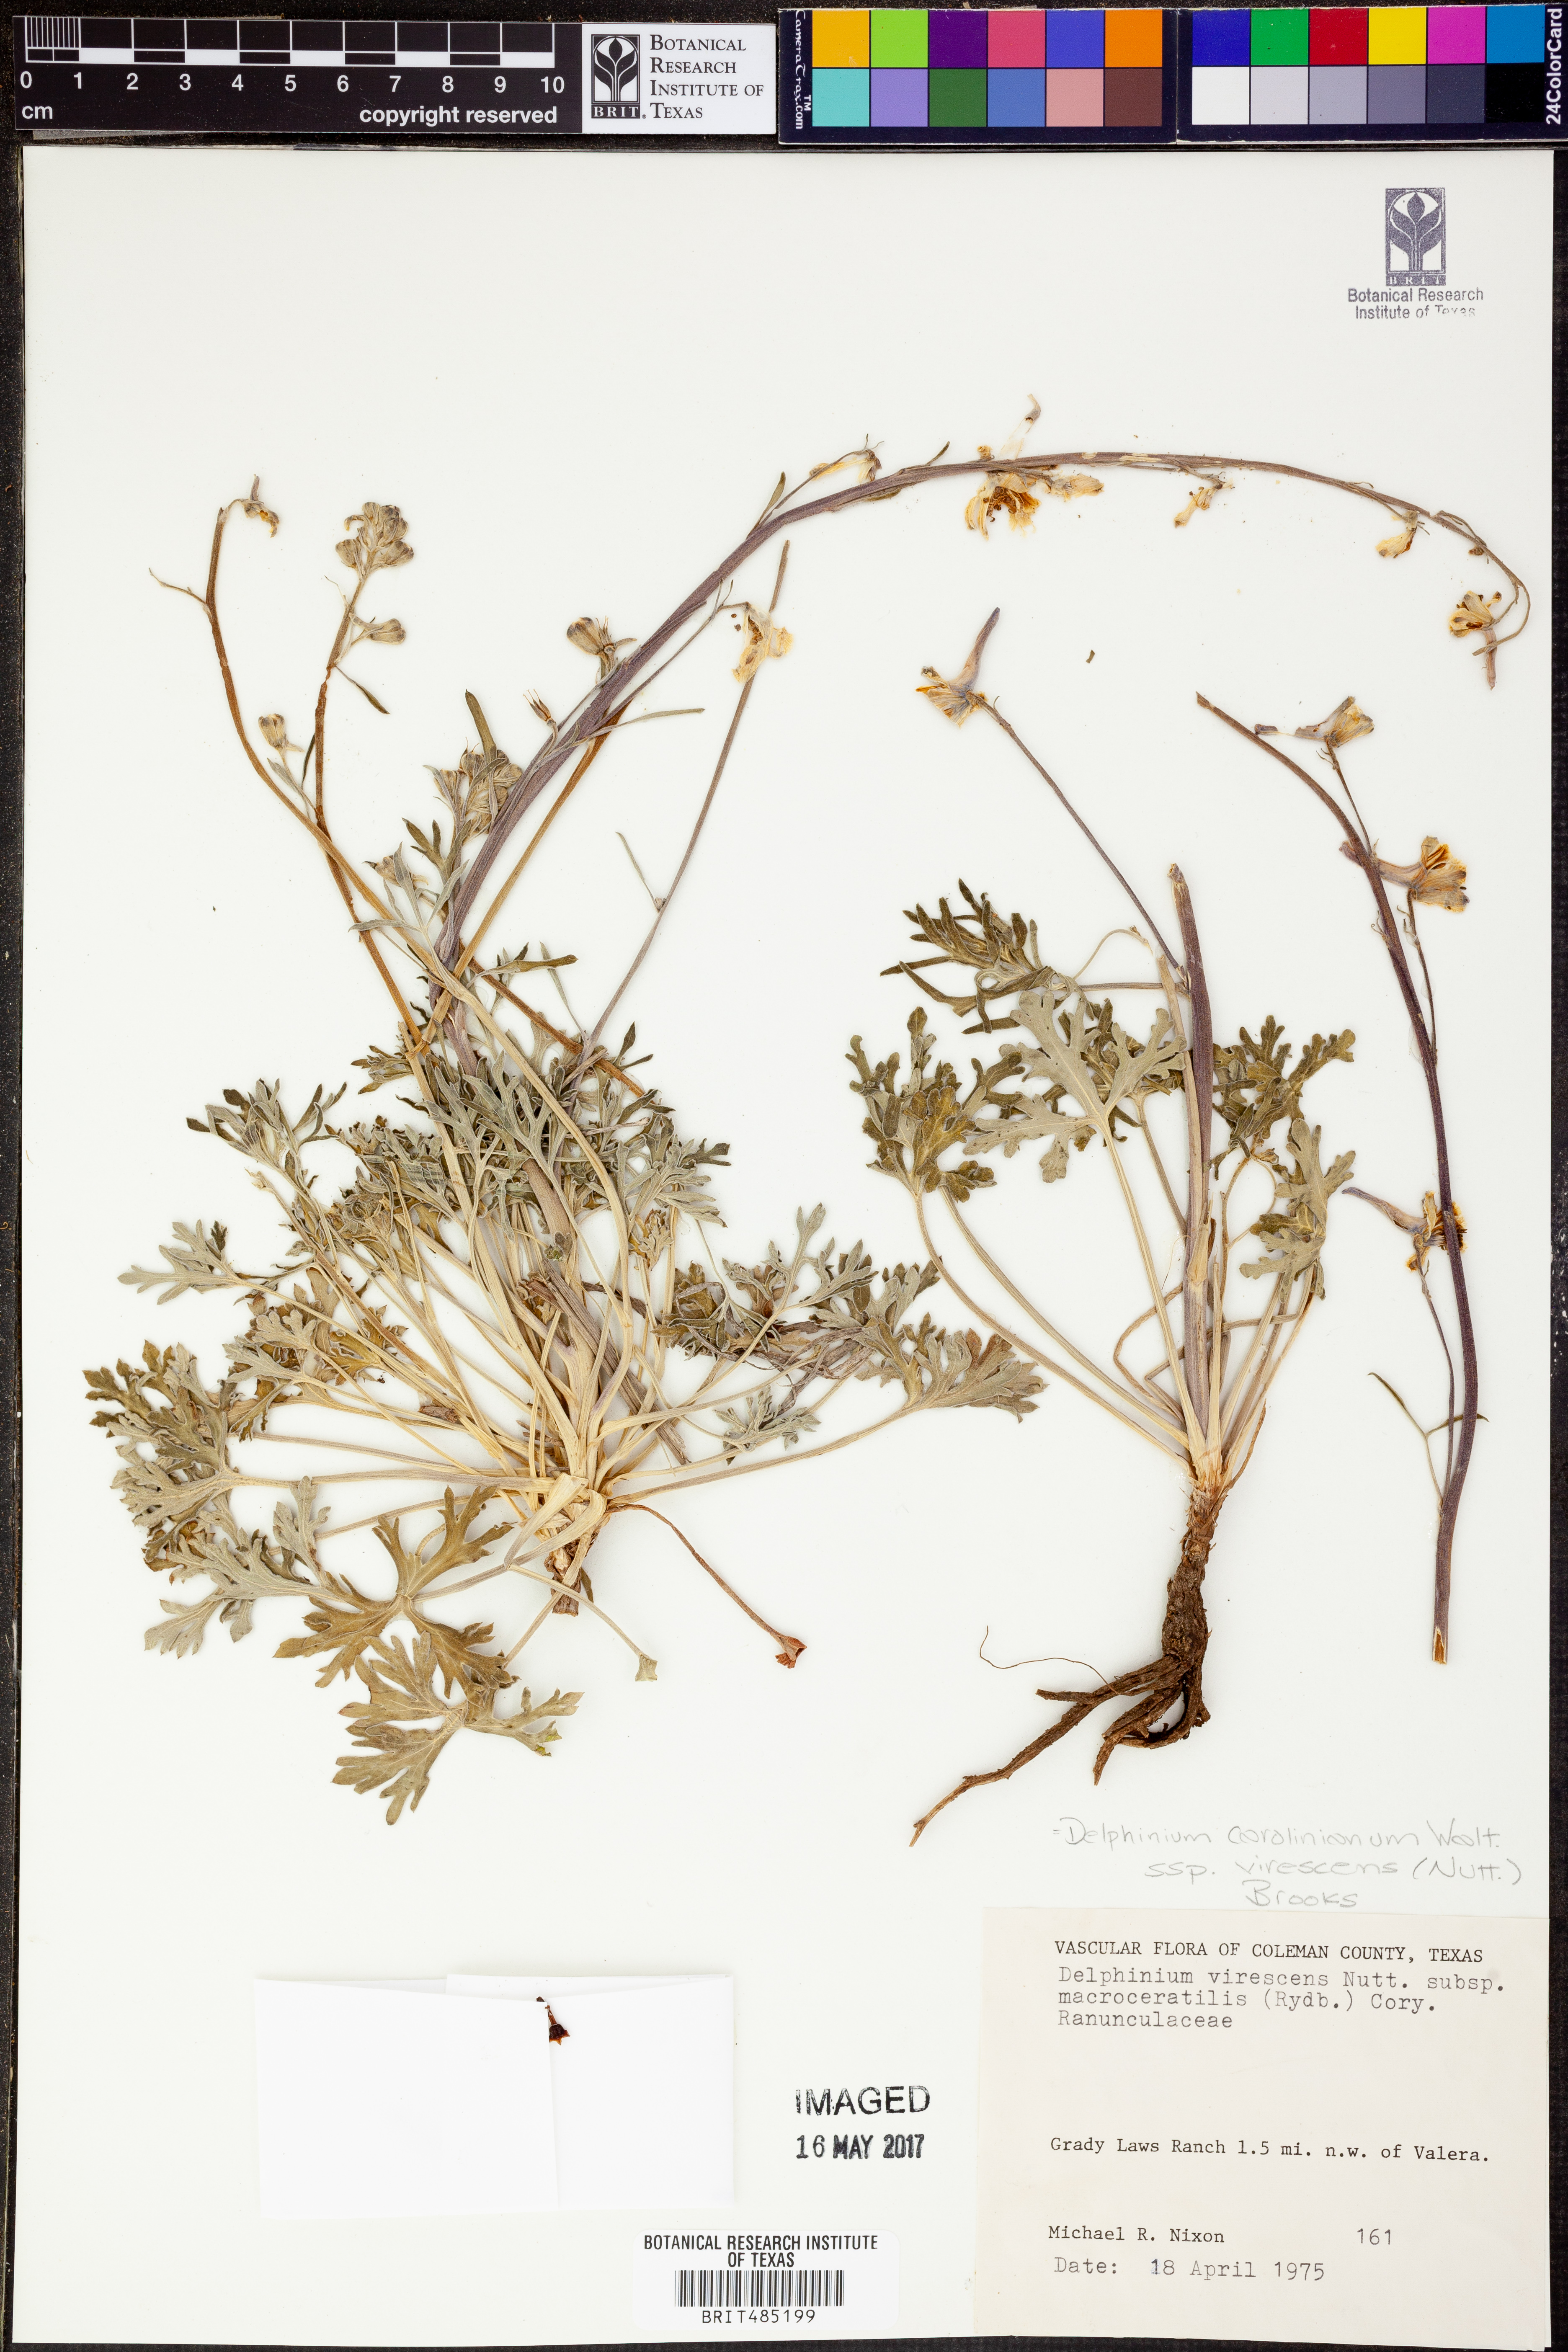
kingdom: Plantae
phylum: Tracheophyta
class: Magnoliopsida
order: Ranunculales
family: Ranunculaceae
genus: Delphinium
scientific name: Delphinium carolinianum
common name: Carolina larkspur
